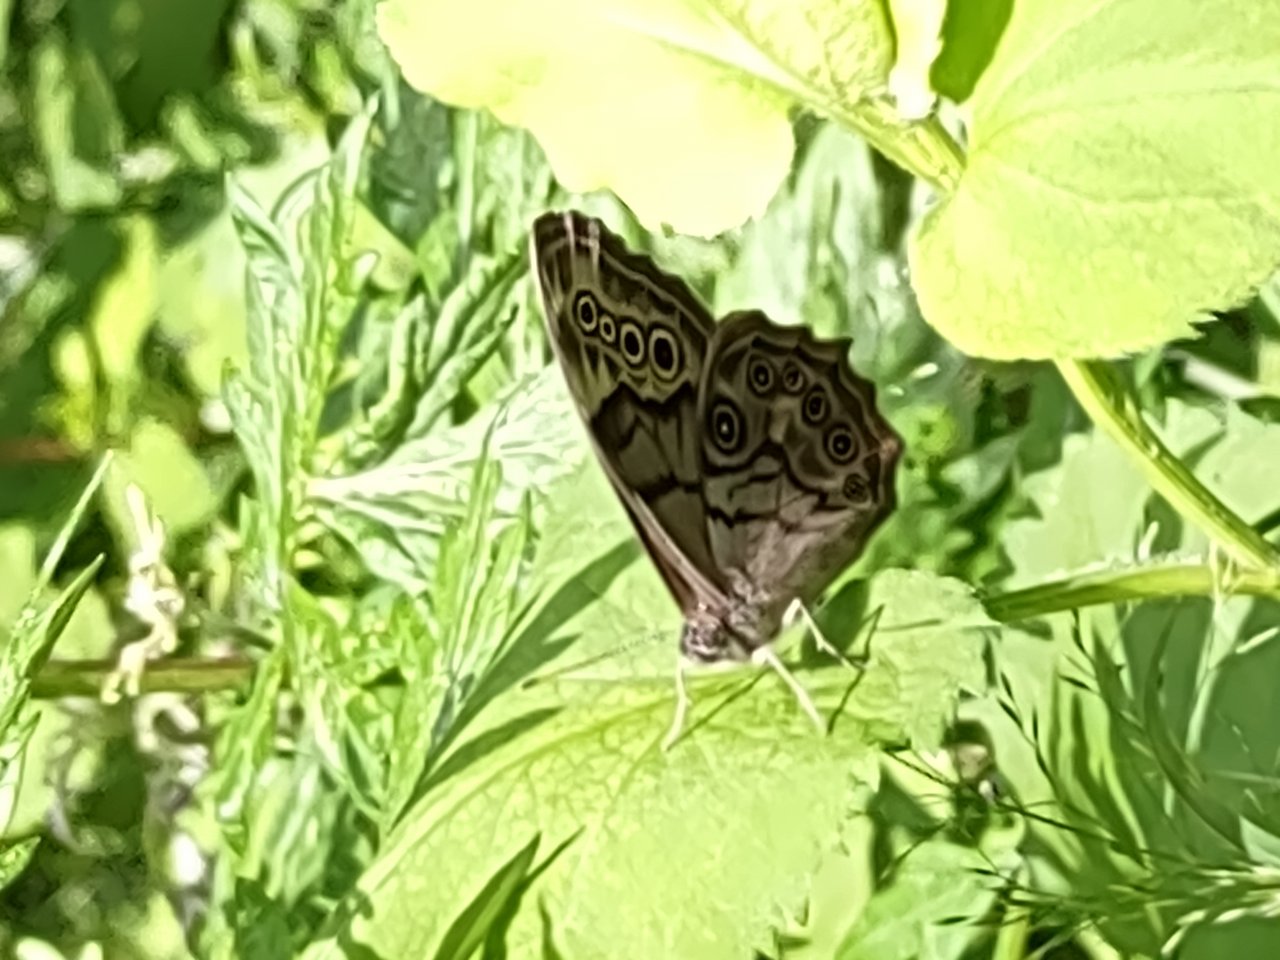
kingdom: Animalia
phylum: Arthropoda
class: Insecta
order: Lepidoptera
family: Nymphalidae
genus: Lethe
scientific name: Lethe anthedon
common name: Northern Pearly-Eye
